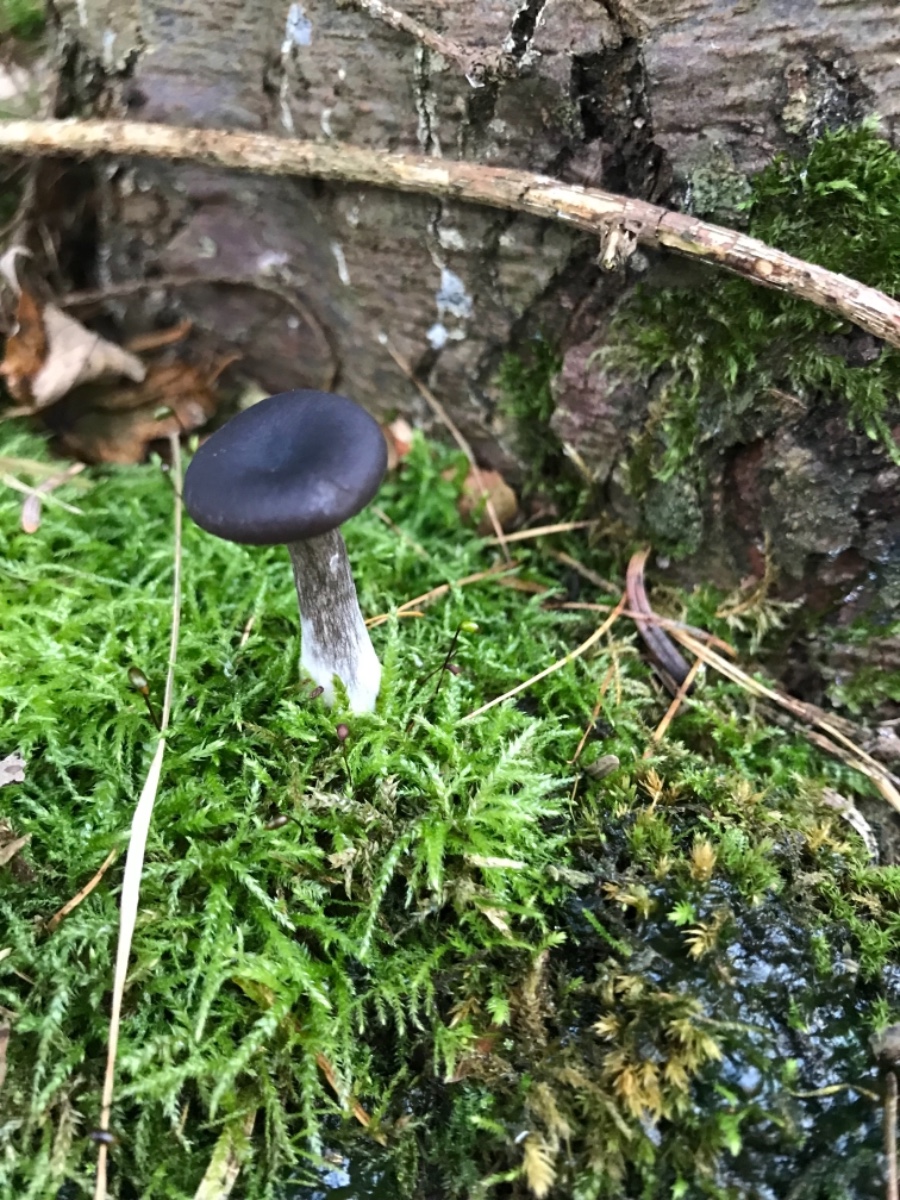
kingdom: Fungi
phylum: Basidiomycota
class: Agaricomycetes
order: Agaricales
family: Pseudoclitocybaceae
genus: Pseudoclitocybe
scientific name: Pseudoclitocybe cyathiformis
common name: almindelig bægertragthat
